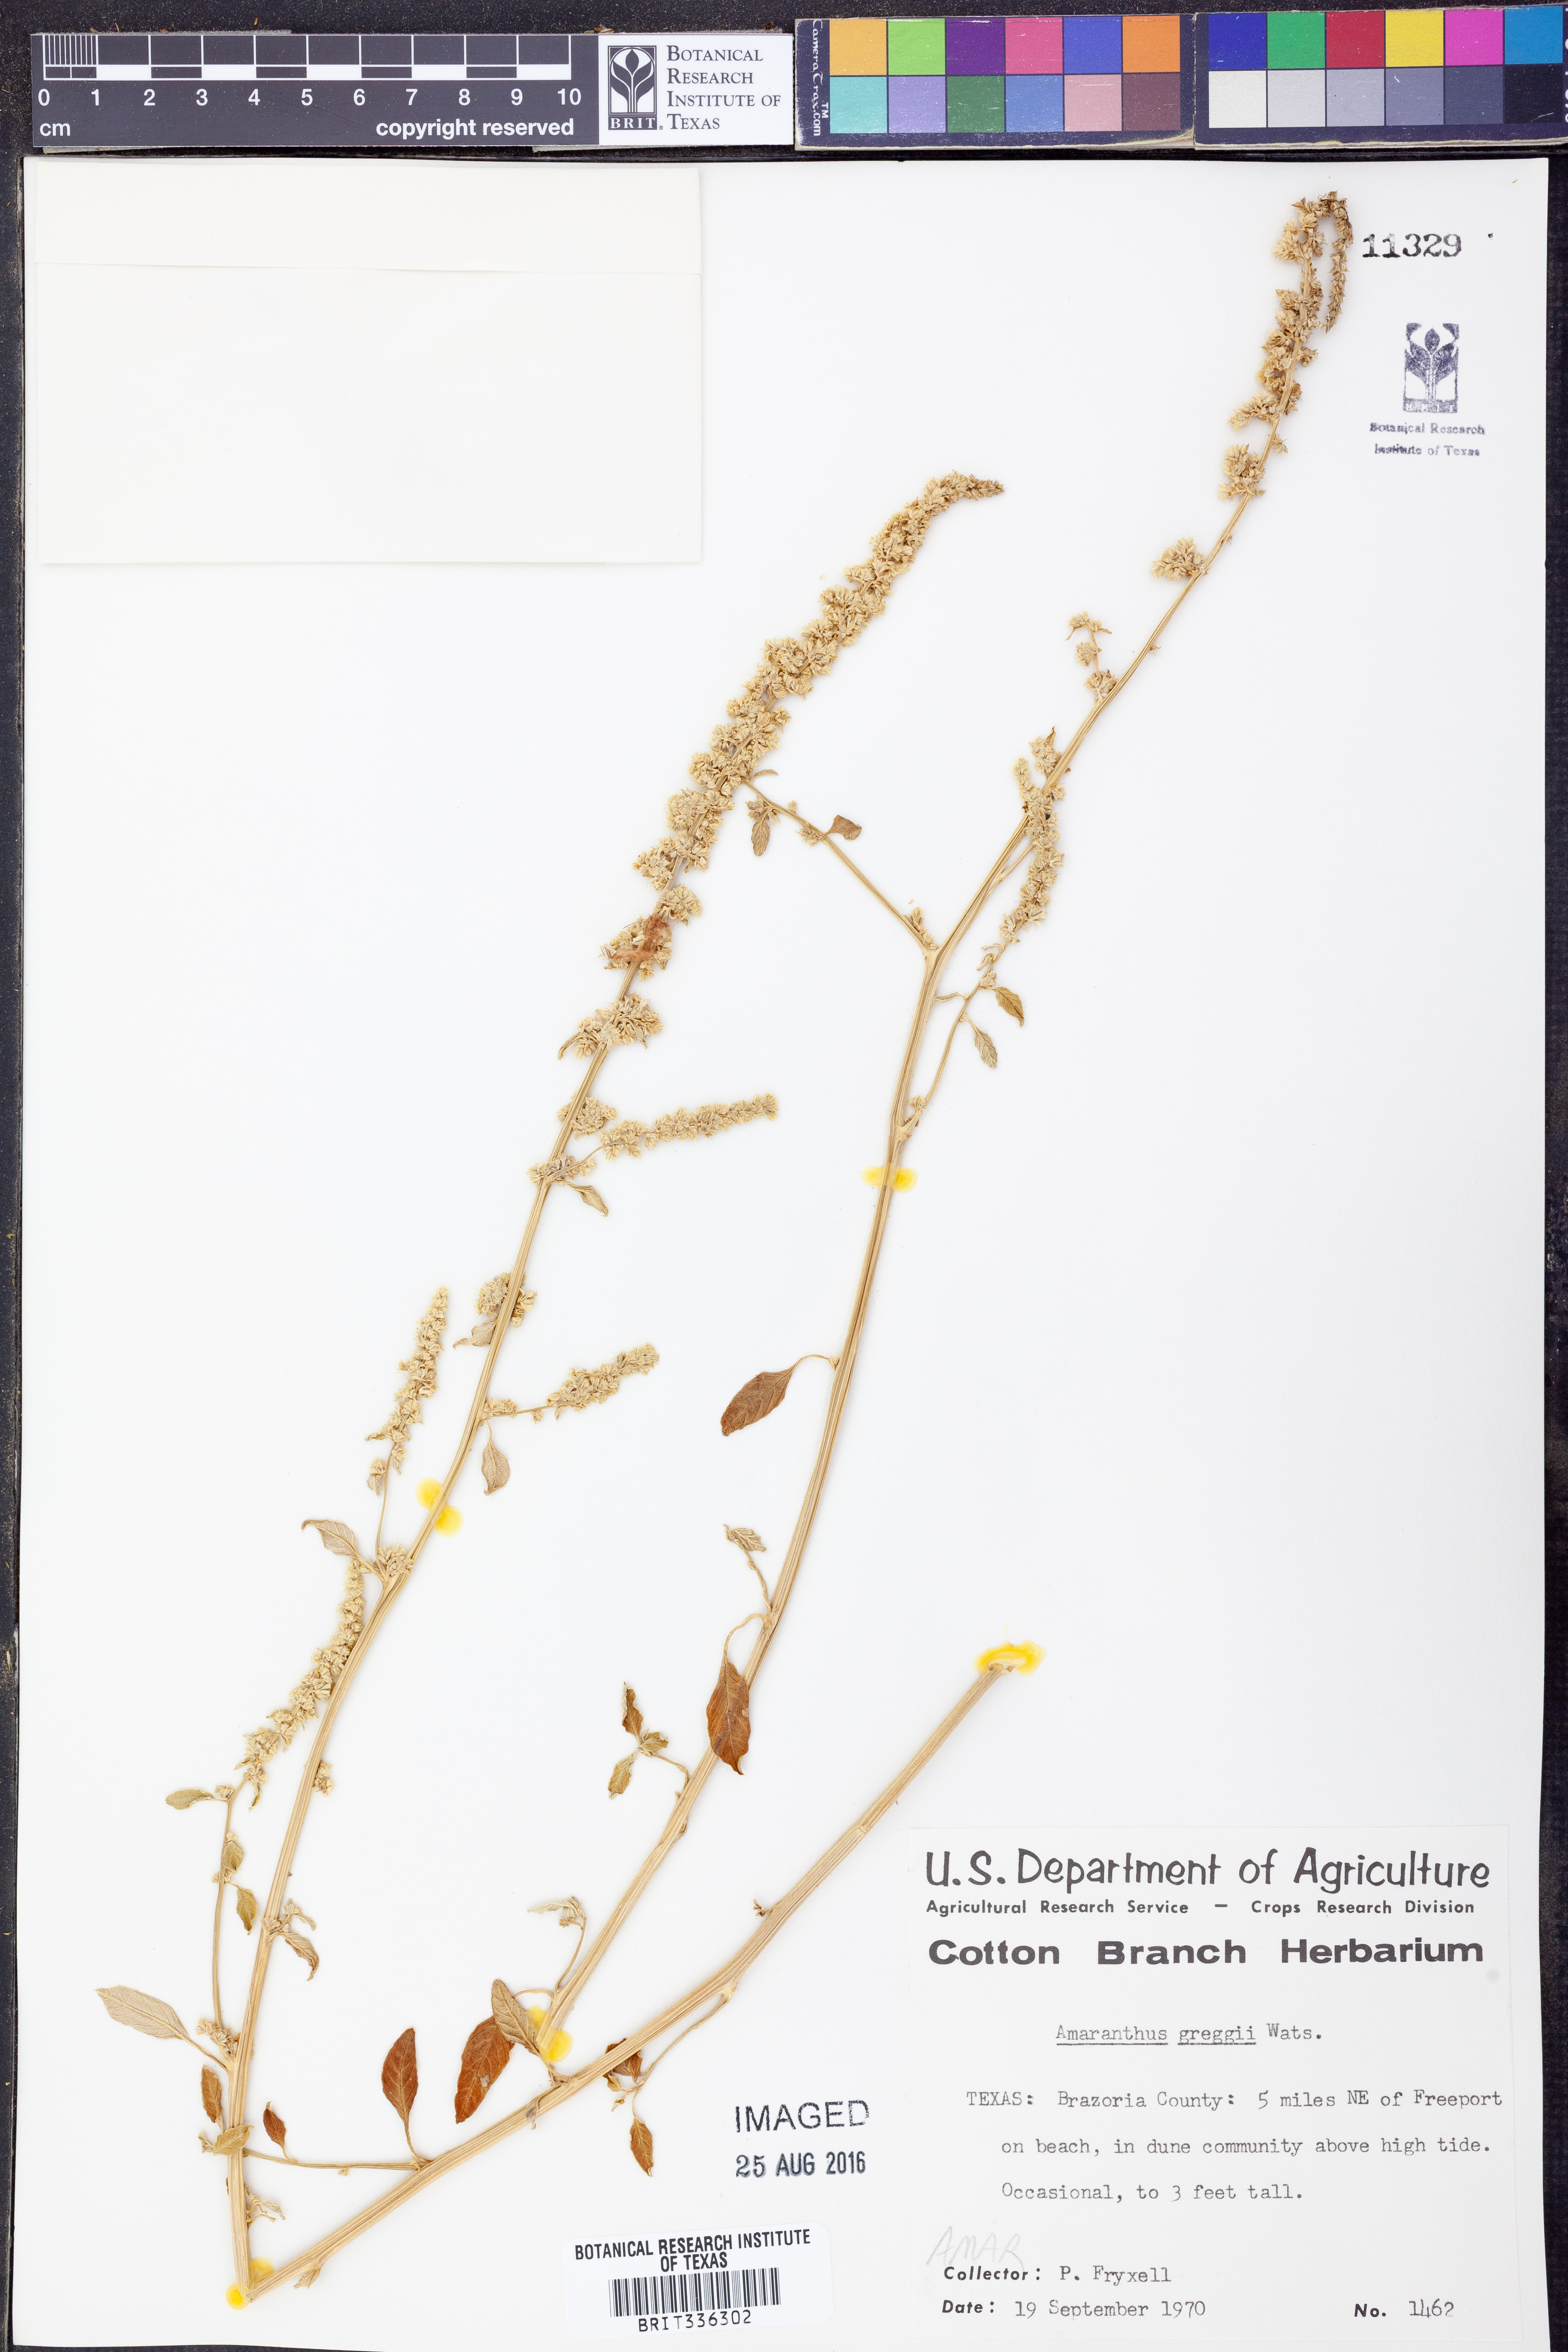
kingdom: Plantae
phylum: Tracheophyta
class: Magnoliopsida
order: Caryophyllales
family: Amaranthaceae
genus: Amaranthus
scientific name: Amaranthus greggii
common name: Josiah amaranth
